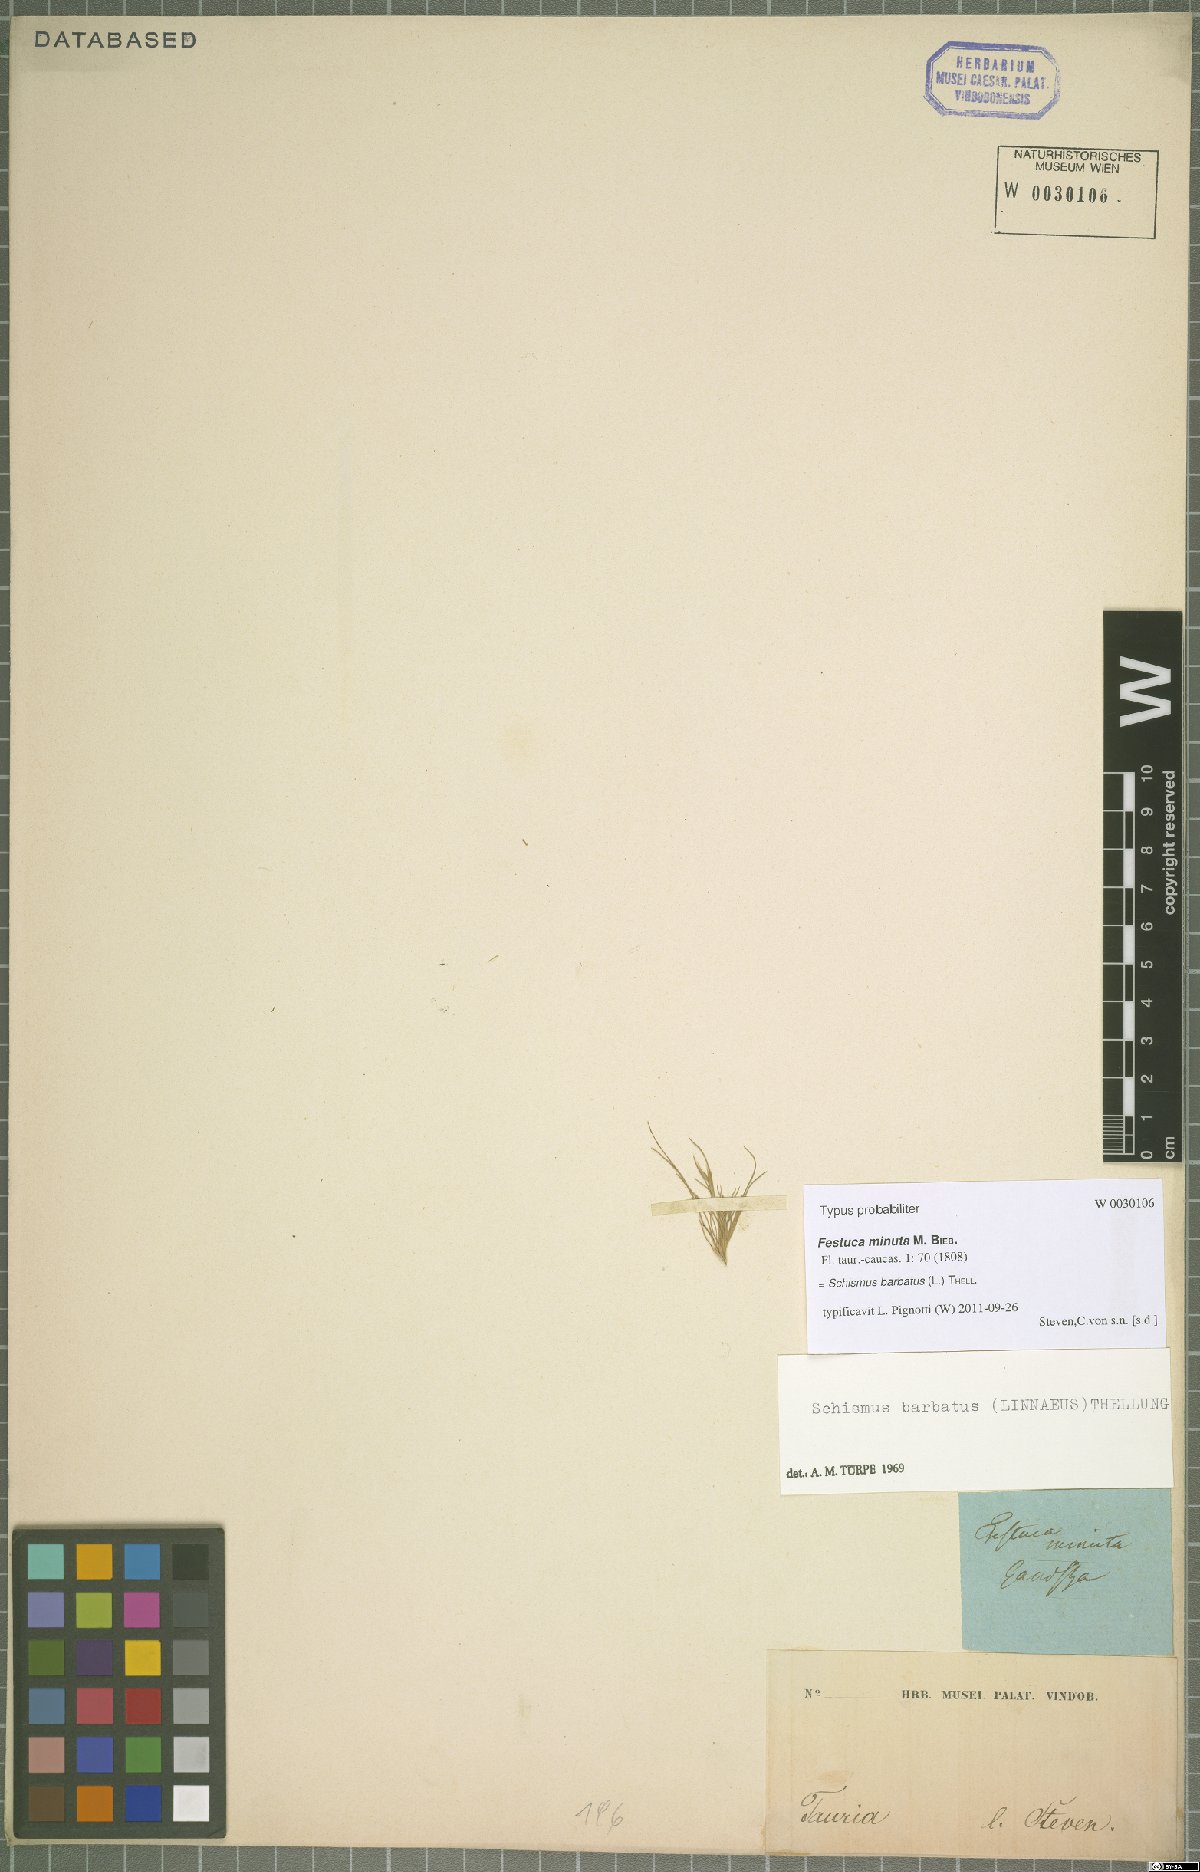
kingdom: Plantae
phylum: Tracheophyta
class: Liliopsida
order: Poales
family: Poaceae
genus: Schismus
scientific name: Schismus barbatus
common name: Kelch-grass
